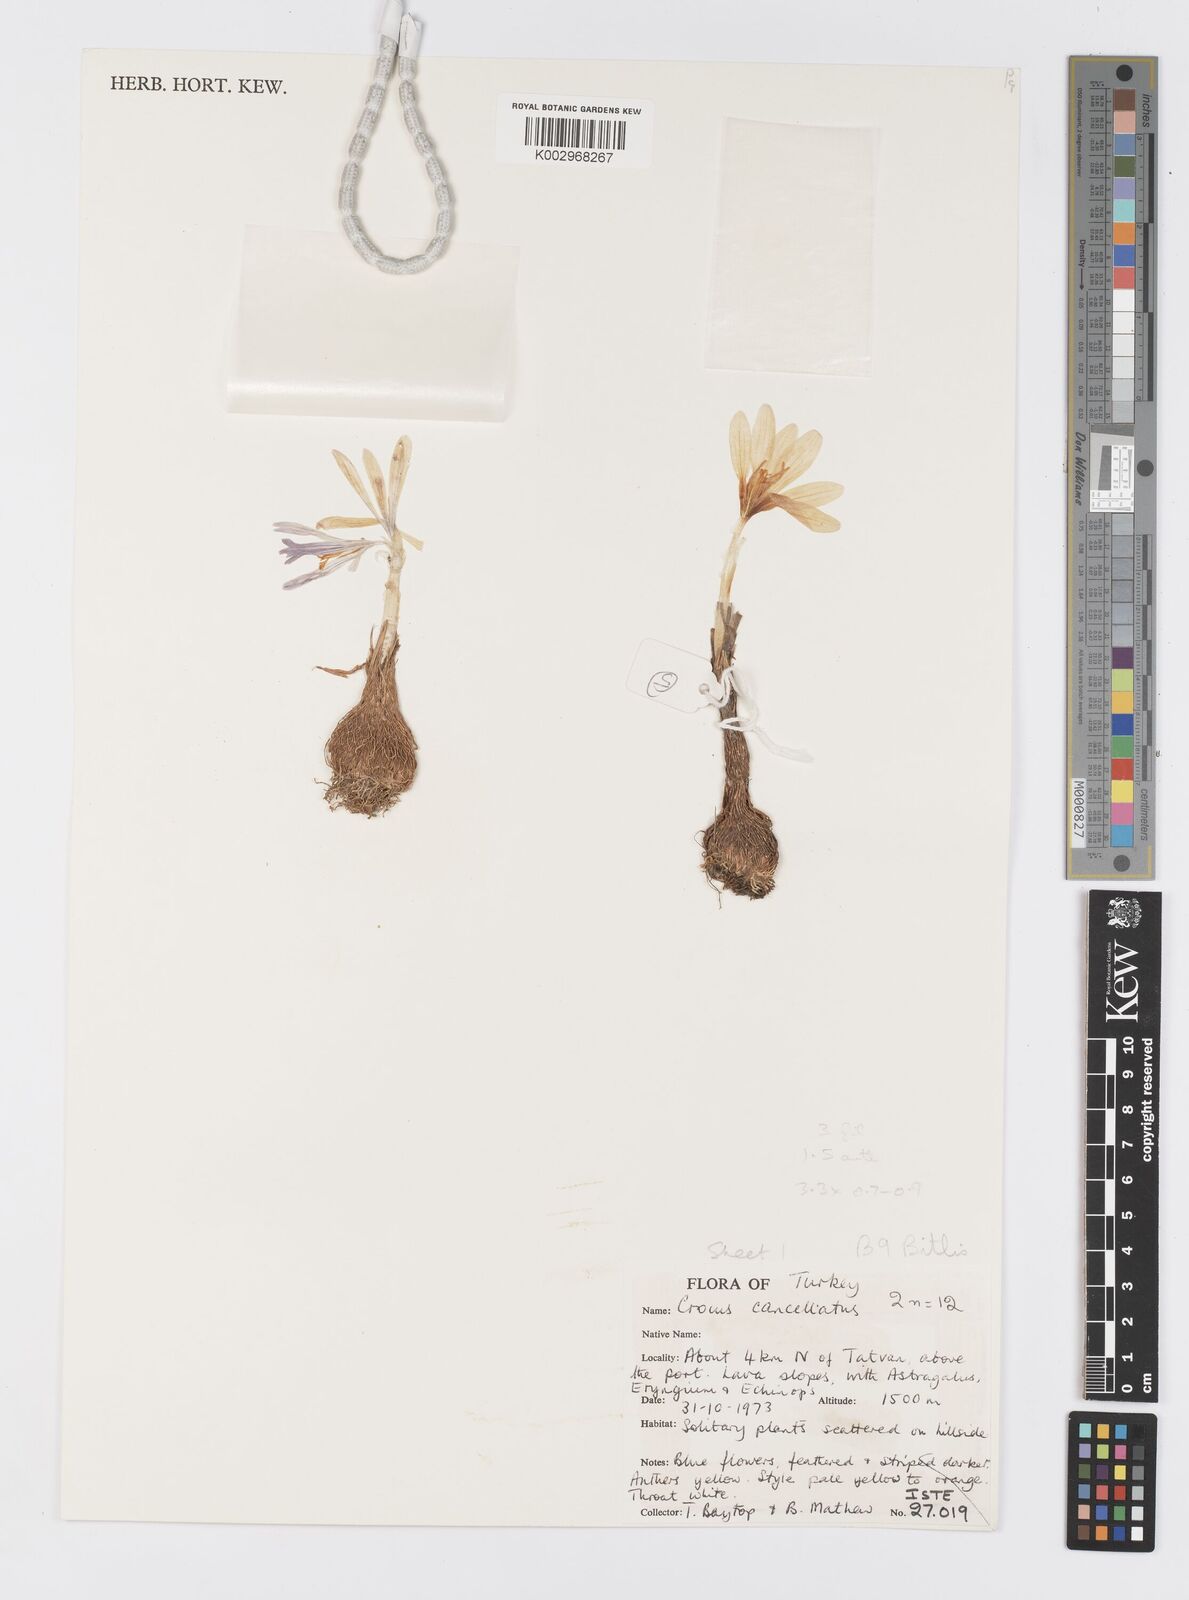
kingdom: Plantae
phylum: Tracheophyta
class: Liliopsida
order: Asparagales
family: Iridaceae
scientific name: Iridaceae
